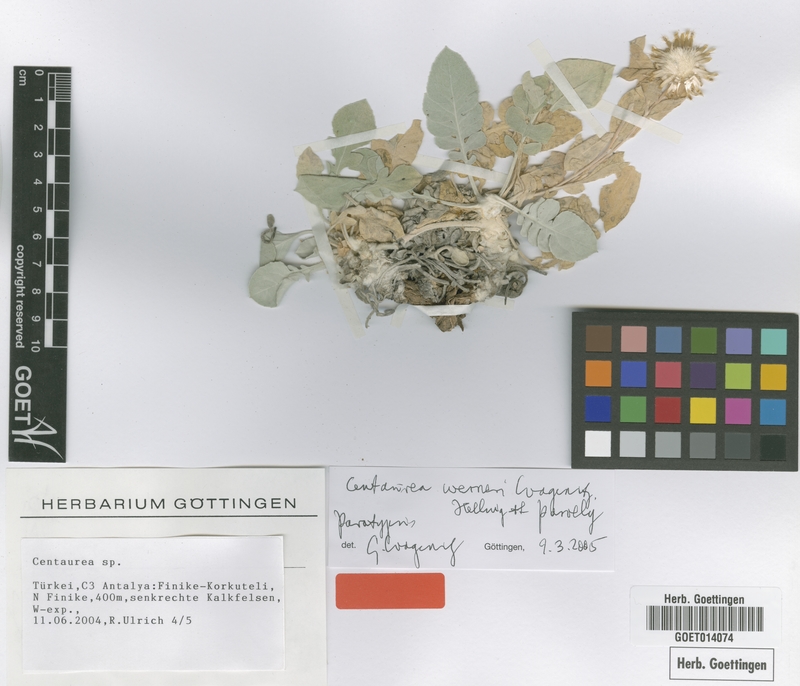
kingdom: Plantae
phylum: Tracheophyta
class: Magnoliopsida
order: Asterales
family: Asteraceae
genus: Centaurea
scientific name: Centaurea werneri
